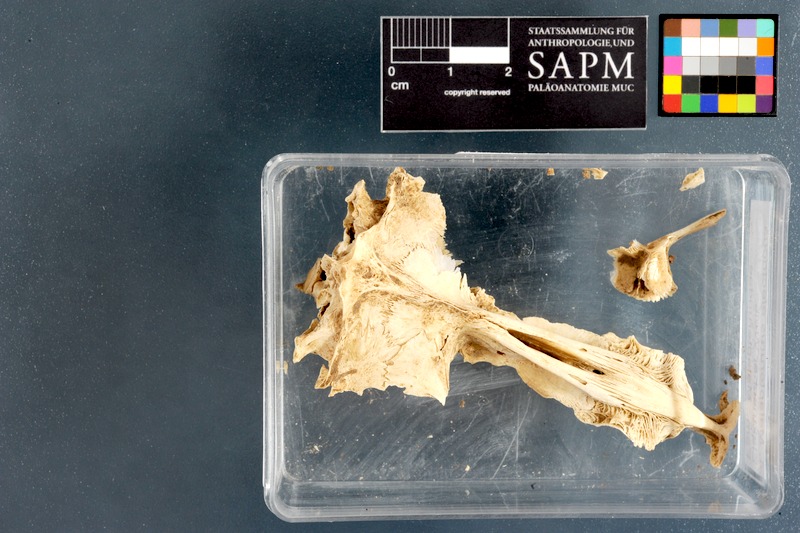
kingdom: Animalia
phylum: Chordata
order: Siluriformes
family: Malapteruridae
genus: Malapterurus
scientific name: Malapterurus electricus
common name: African electric catfish
